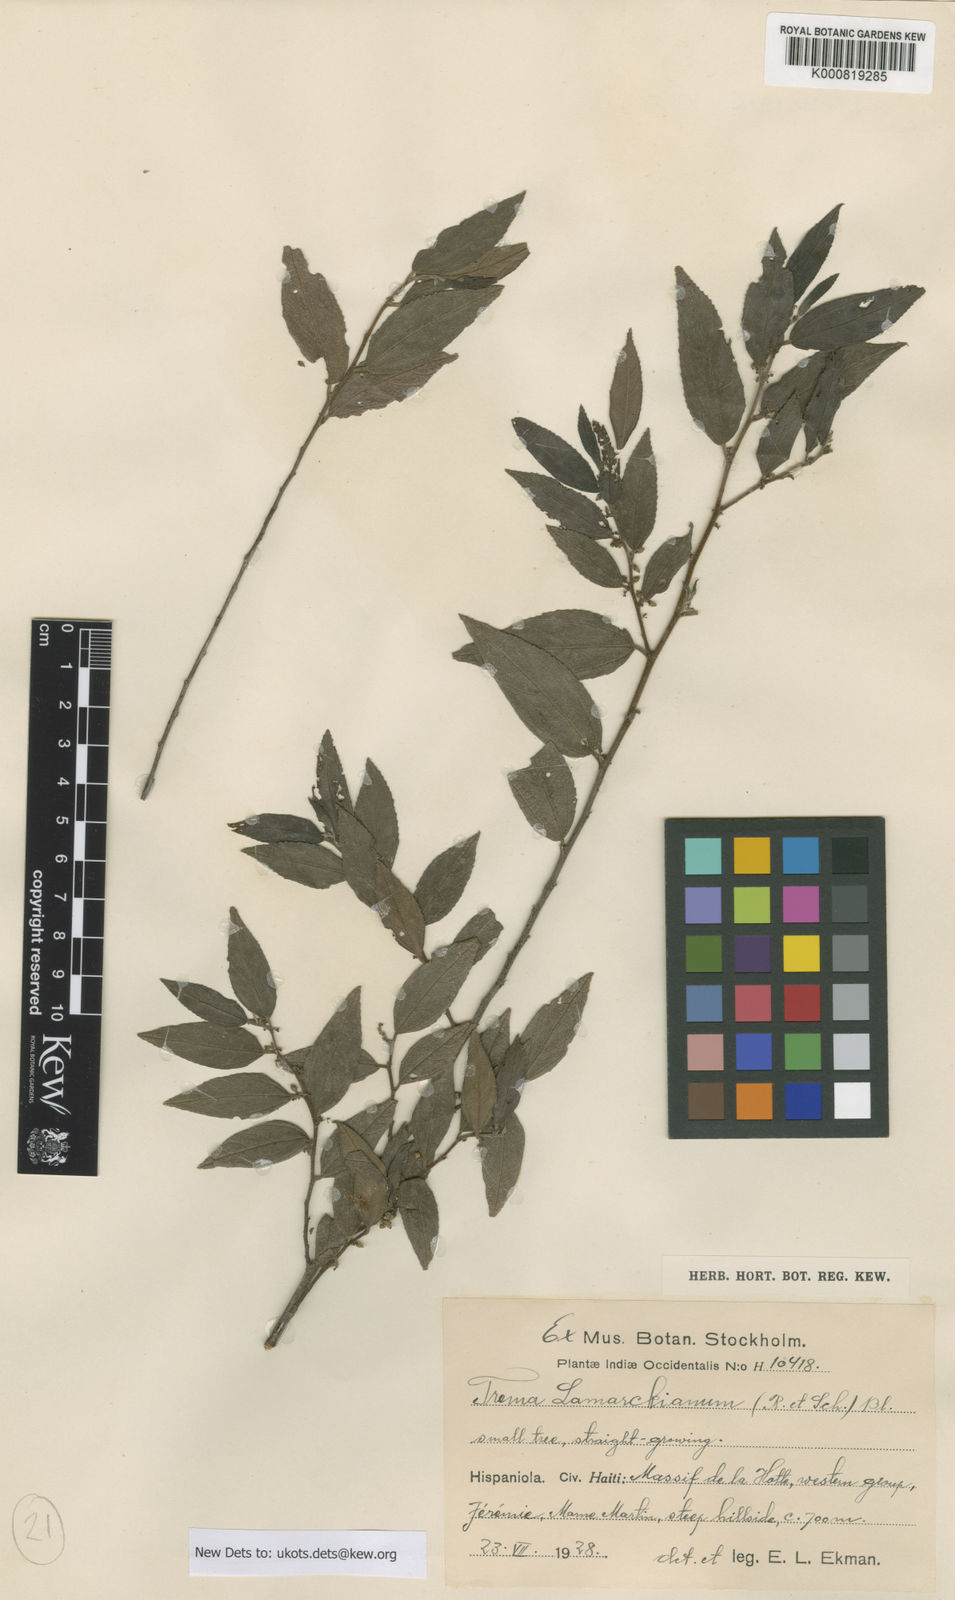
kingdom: Plantae
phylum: Tracheophyta
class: Magnoliopsida
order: Rosales
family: Cannabaceae
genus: Trema
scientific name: Trema lamarckianum
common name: Lamarck's trema
